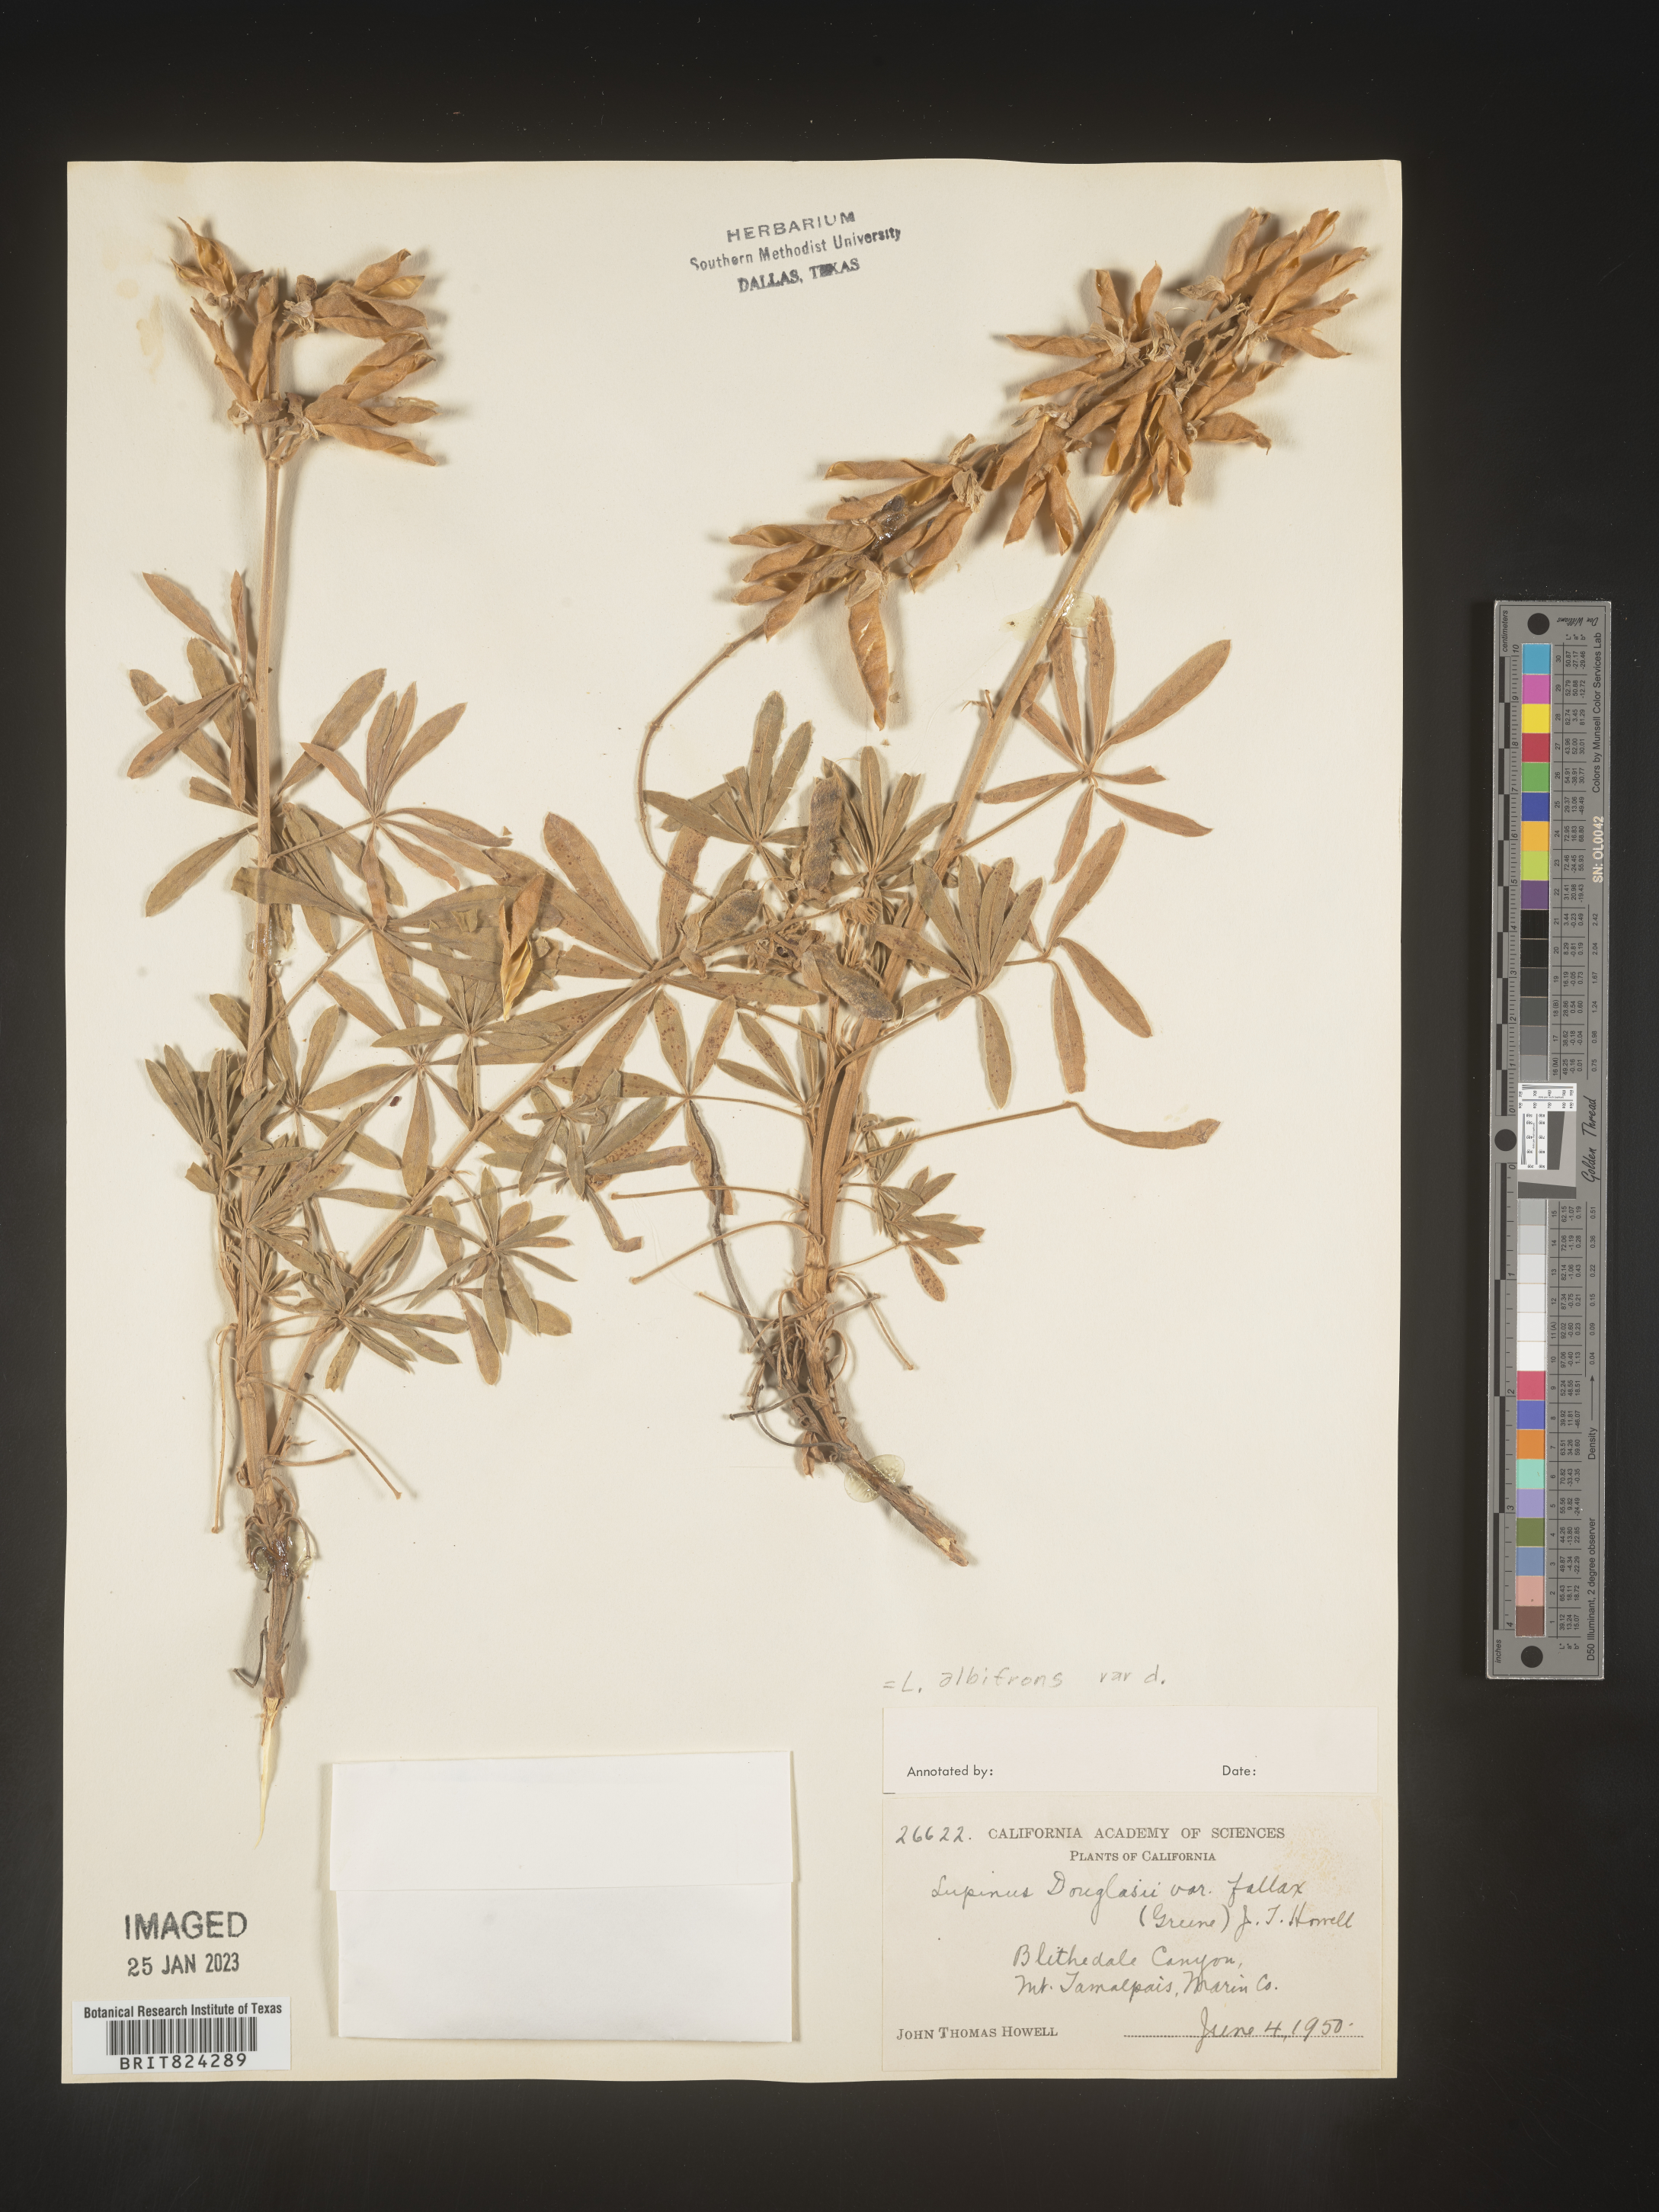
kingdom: Plantae
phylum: Tracheophyta
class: Magnoliopsida
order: Fabales
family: Fabaceae
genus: Lupinus
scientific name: Lupinus albifrons
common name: Foothill lupine
